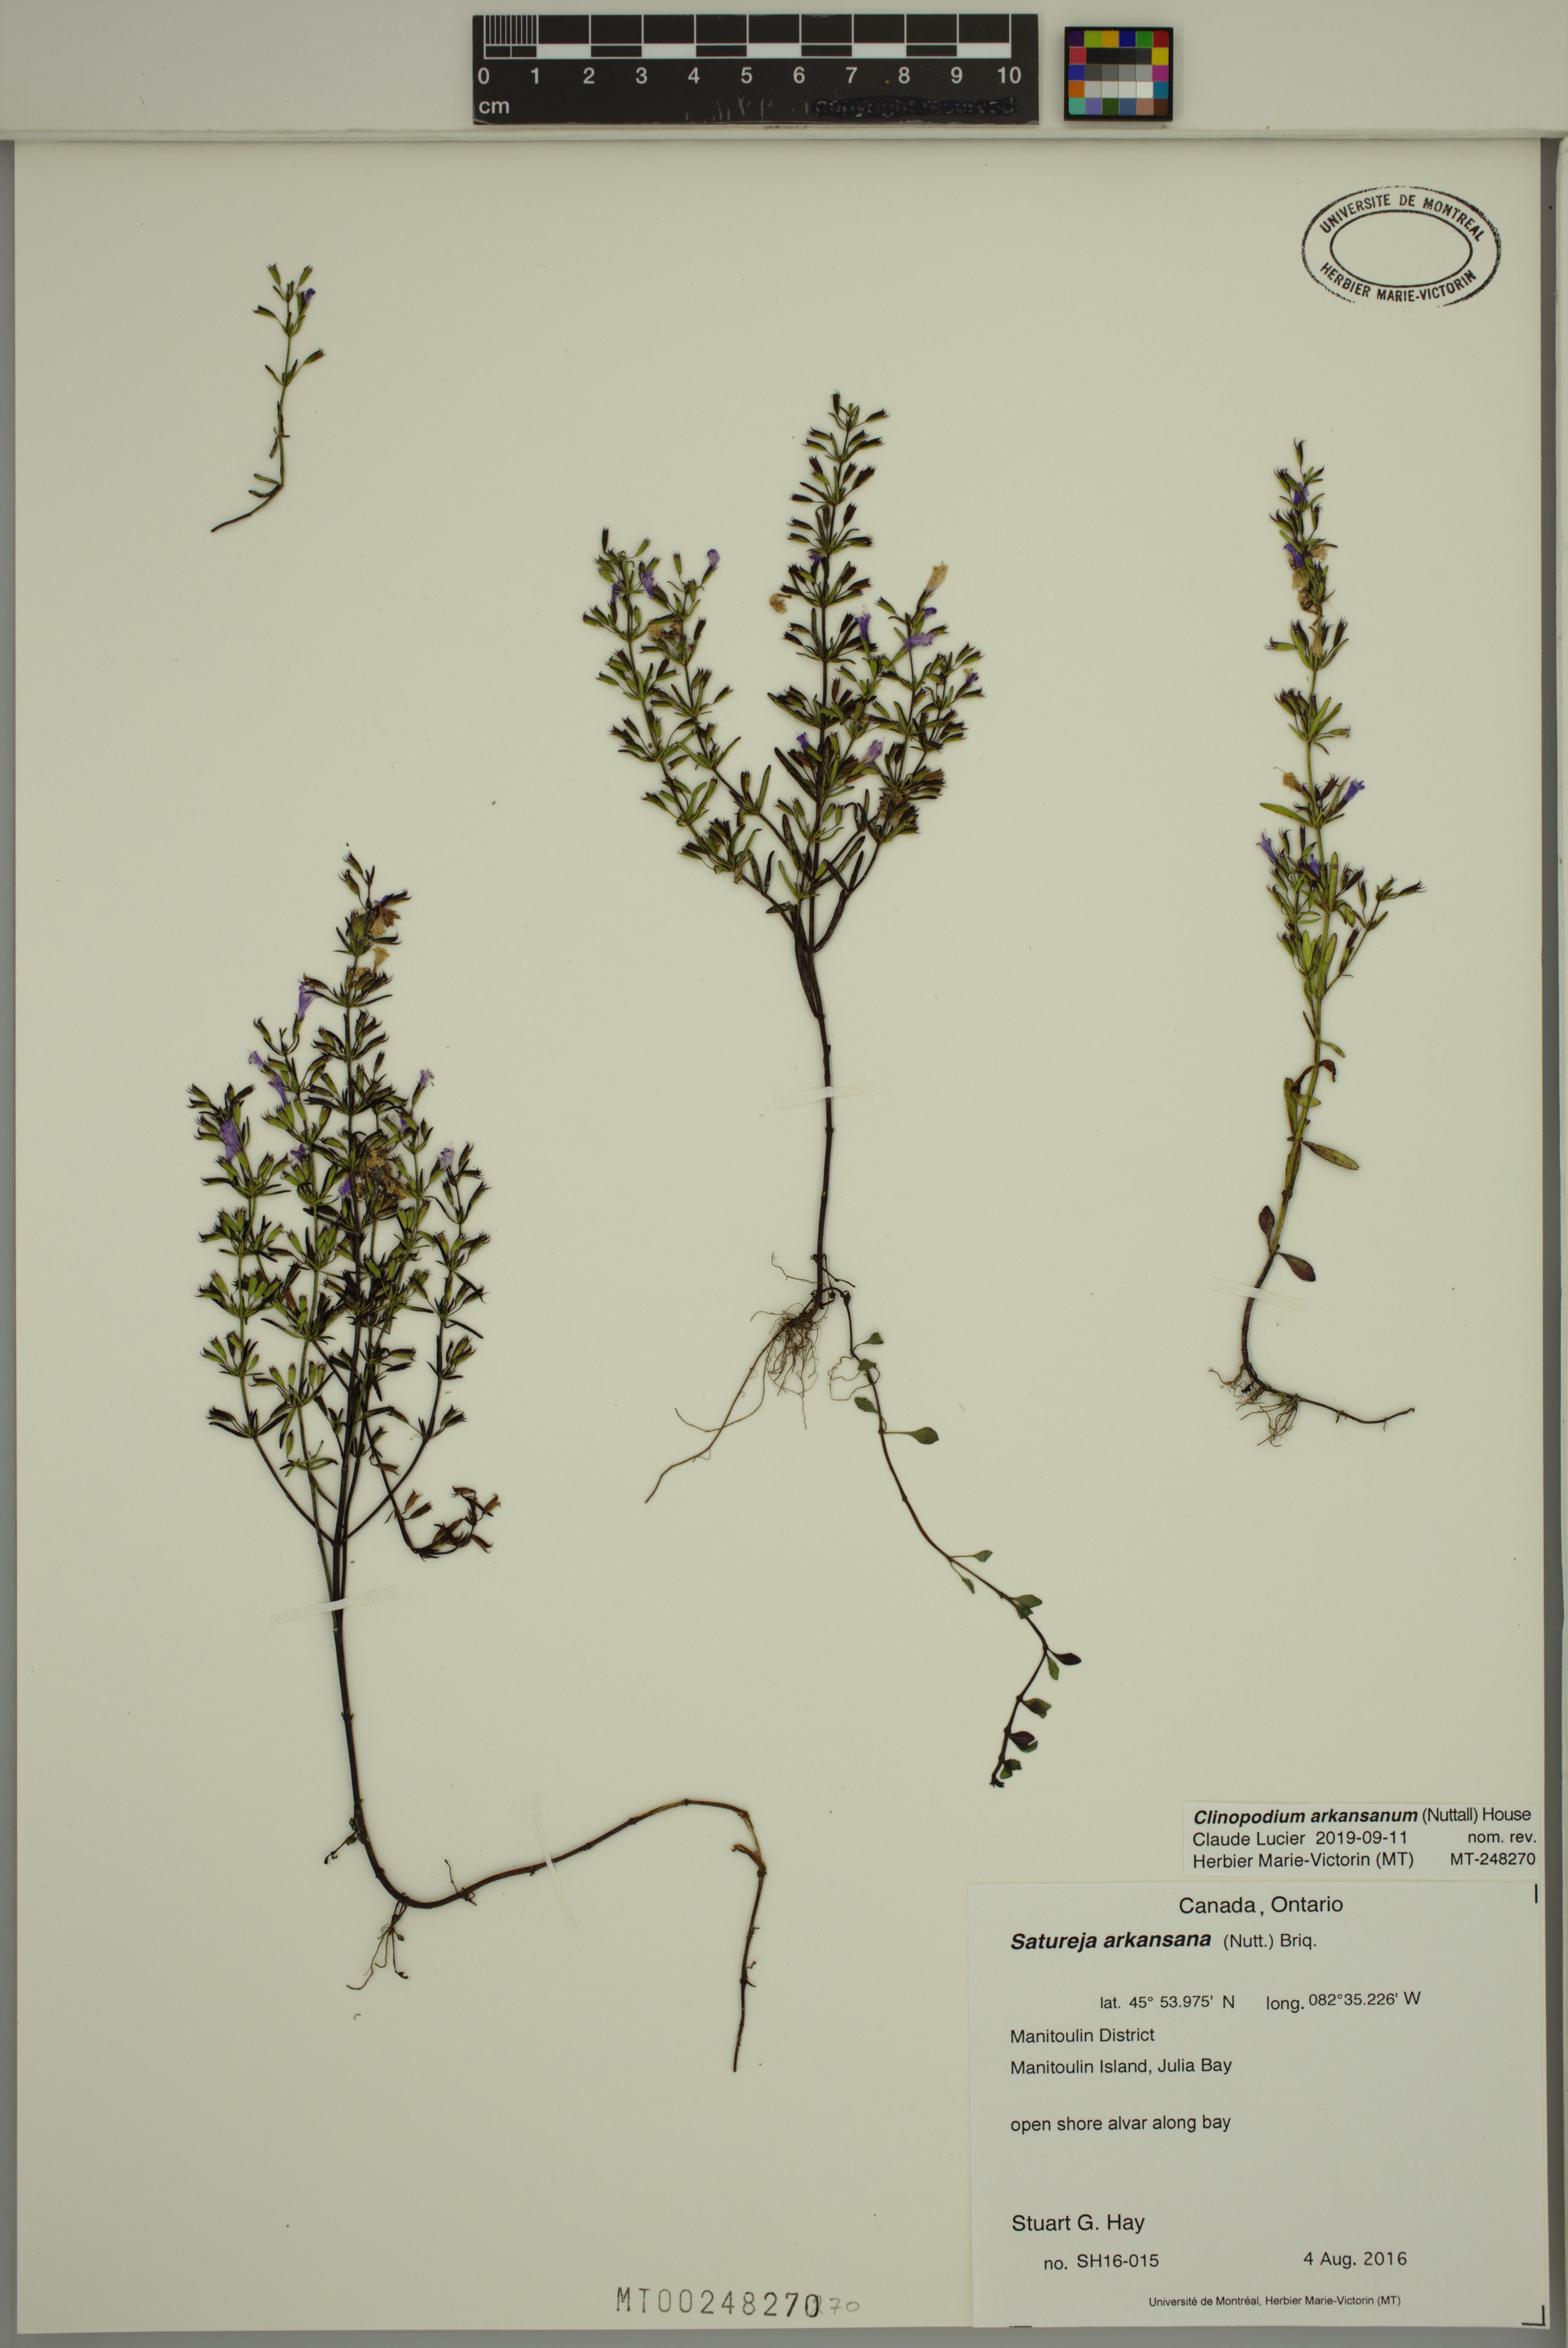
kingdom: Plantae
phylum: Tracheophyta
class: Magnoliopsida
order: Lamiales
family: Lamiaceae
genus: Clinopodium
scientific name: Clinopodium arkansanum
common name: Limestone calamint
